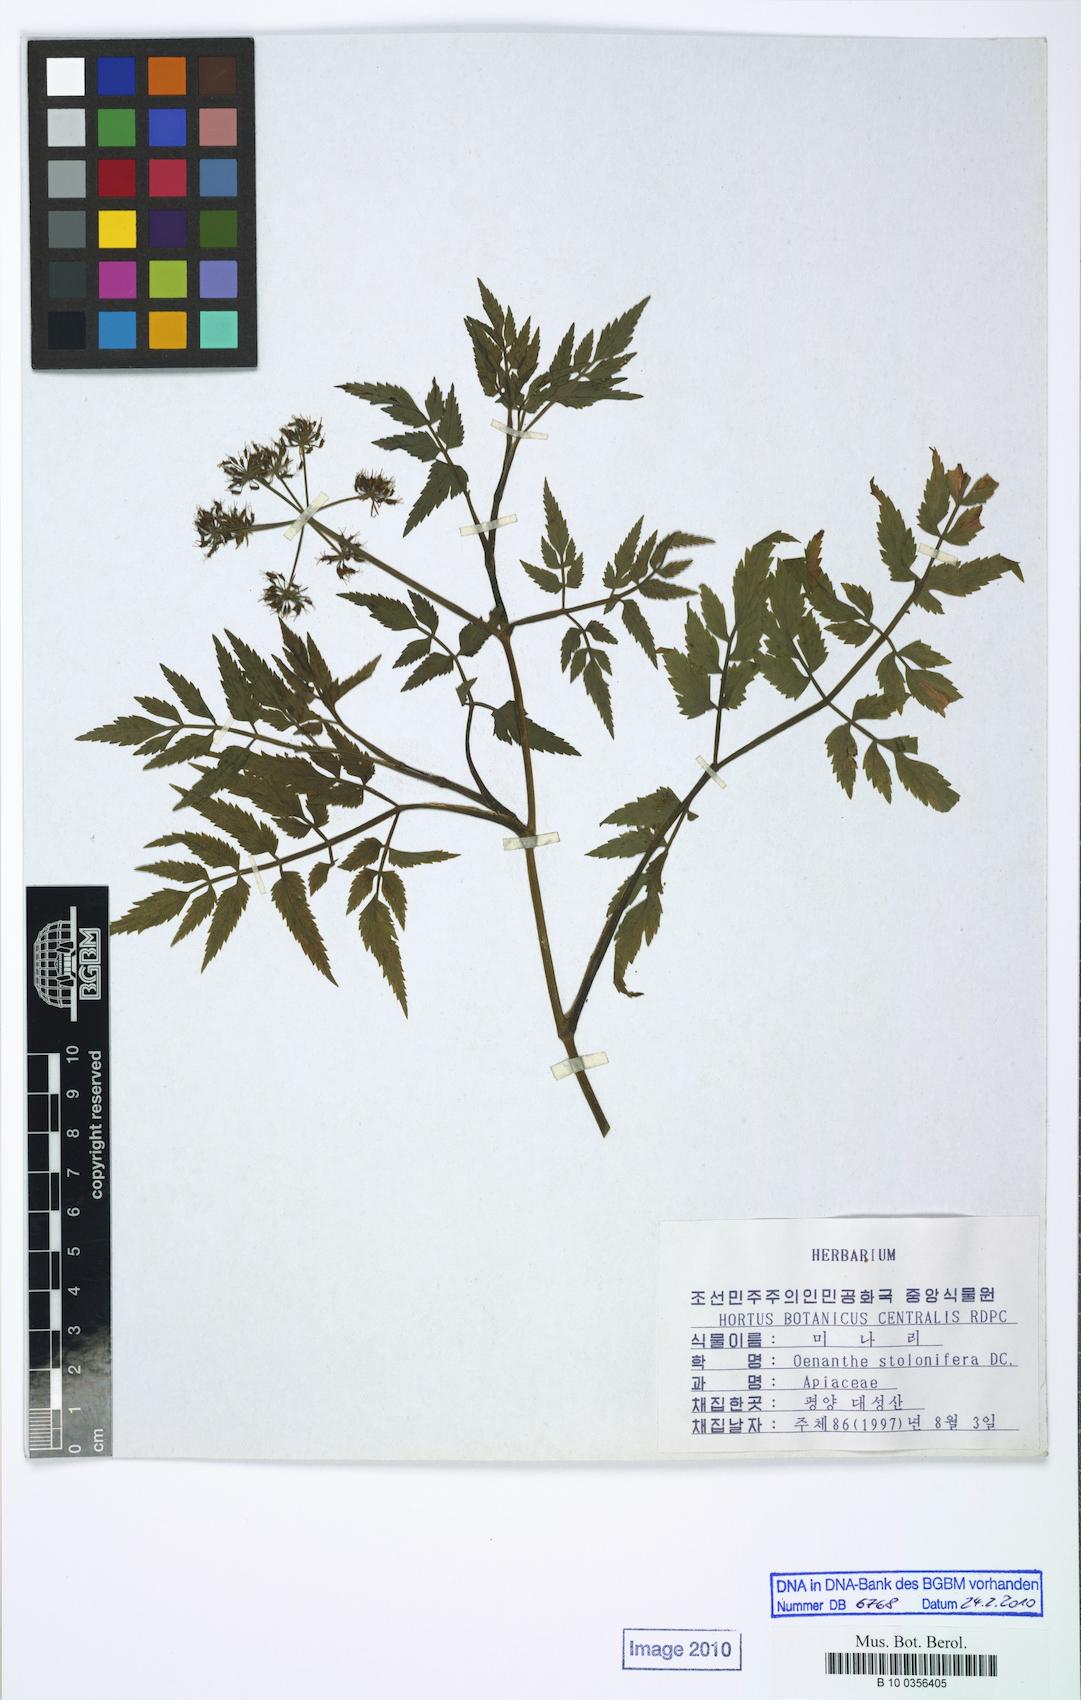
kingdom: Plantae
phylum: Tracheophyta
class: Magnoliopsida
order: Apiales
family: Apiaceae
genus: Oenanthe
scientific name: Oenanthe javanica
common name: Java water-dropwort
